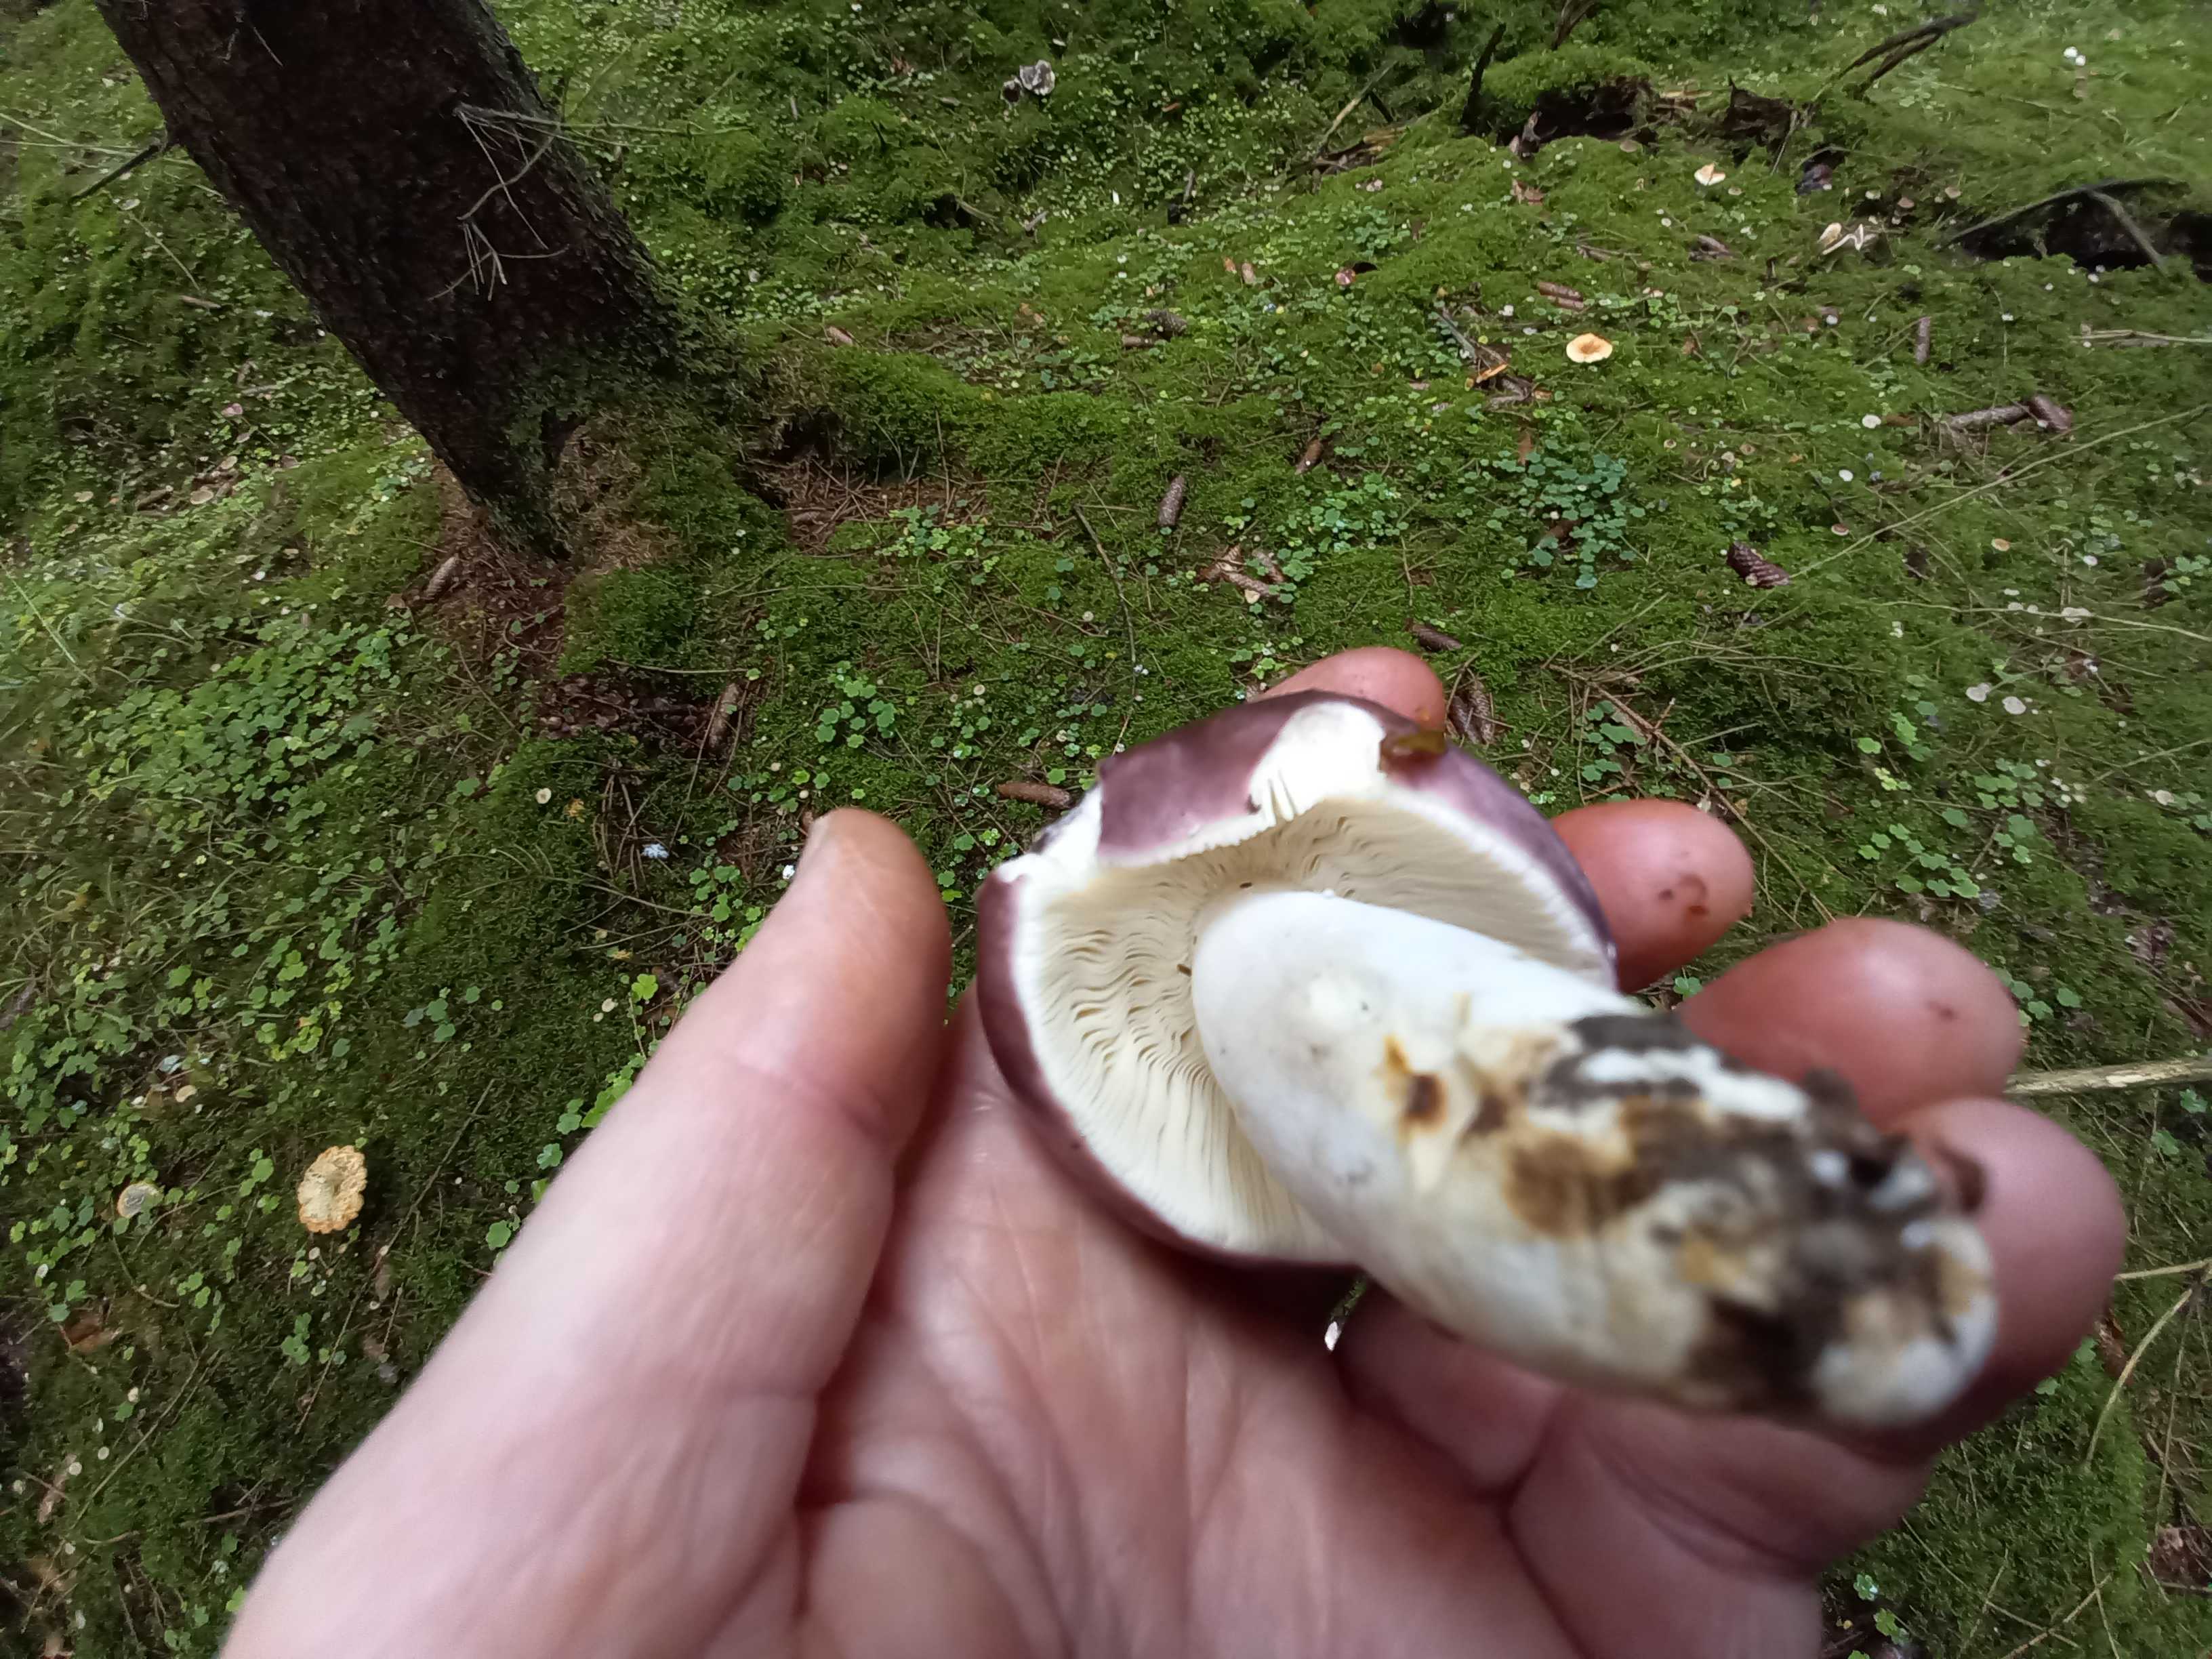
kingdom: Fungi
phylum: Basidiomycota
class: Agaricomycetes
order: Russulales
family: Russulaceae
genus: Russula
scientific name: Russula cyanoxantha
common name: broget skørhat
